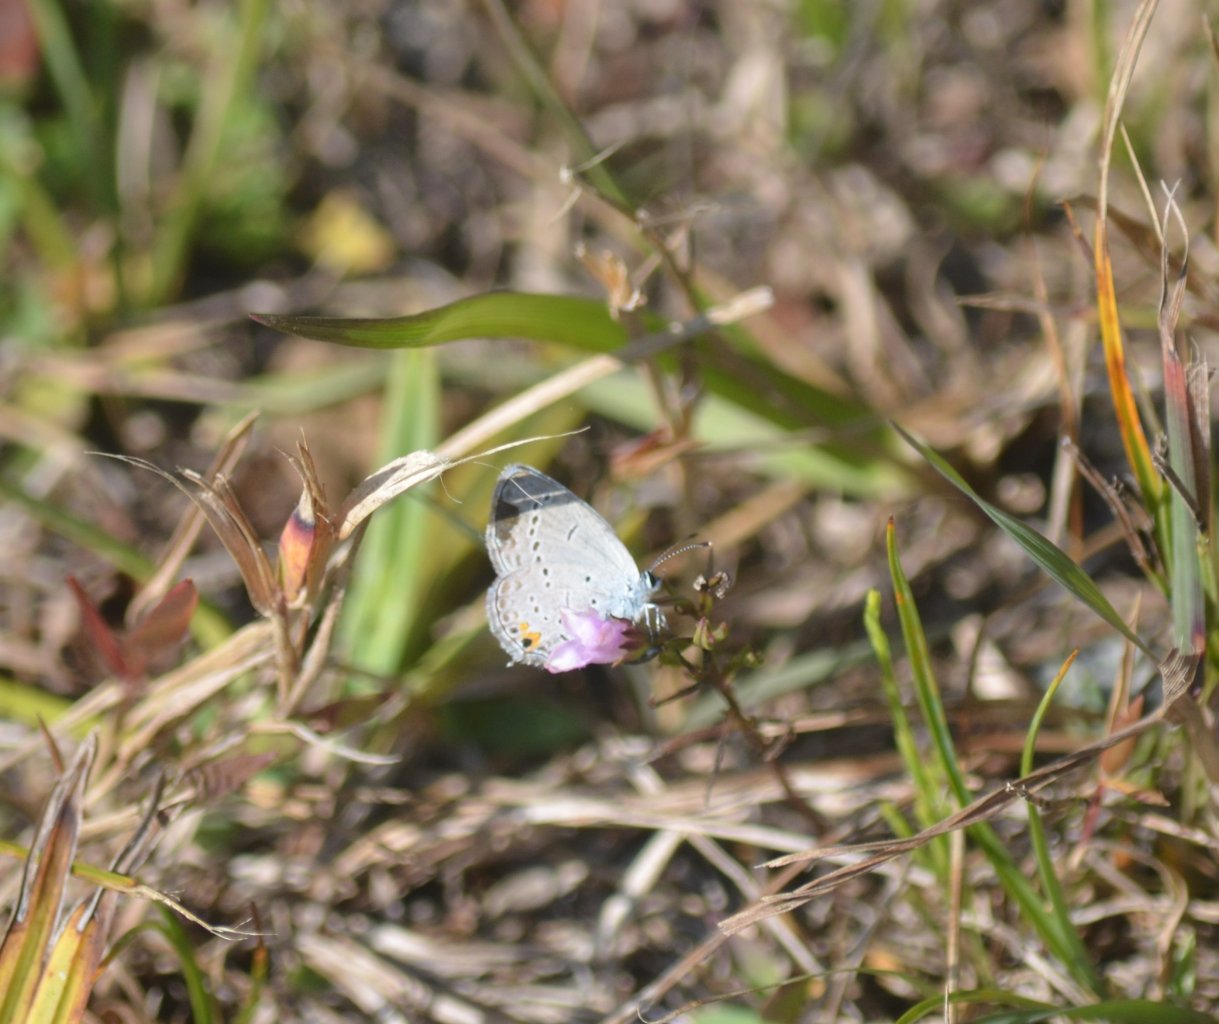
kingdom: Animalia
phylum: Arthropoda
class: Insecta
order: Lepidoptera
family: Lycaenidae
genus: Elkalyce
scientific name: Elkalyce comyntas
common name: Eastern Tailed-Blue
